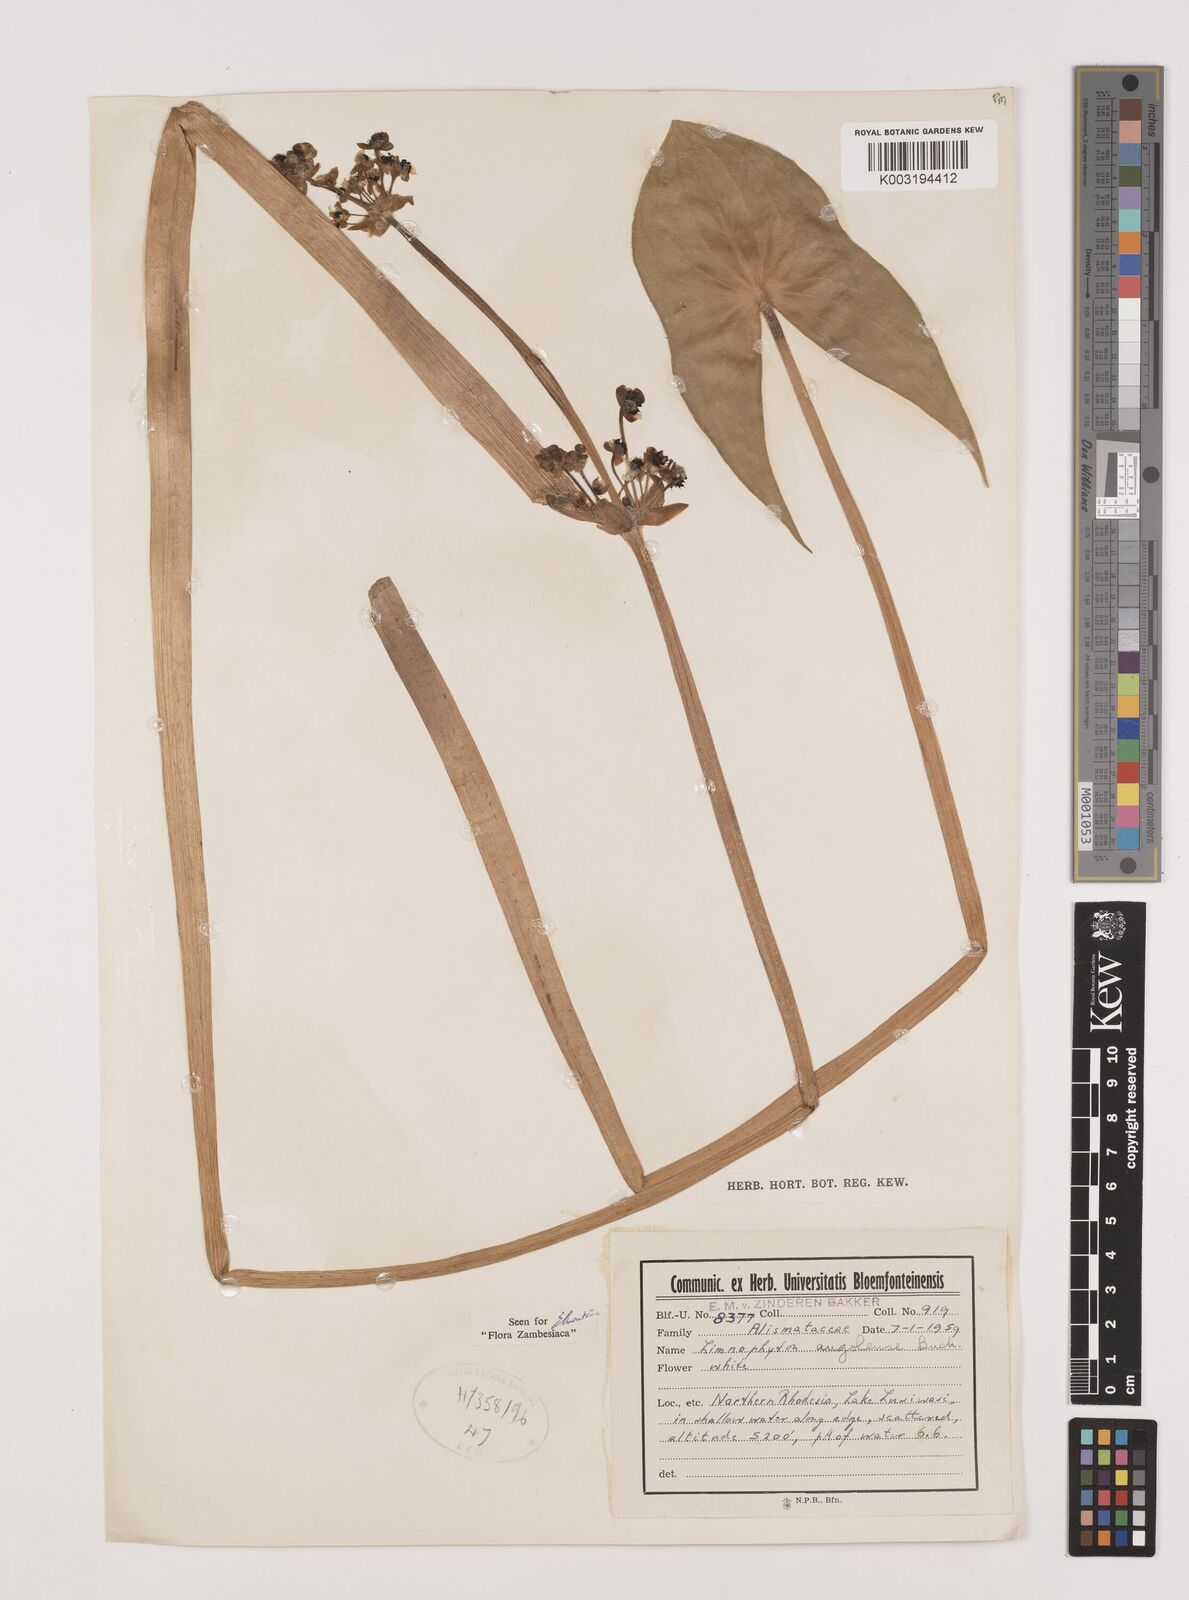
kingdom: Plantae
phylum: Tracheophyta
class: Liliopsida
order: Alismatales
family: Alismataceae
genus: Limnophyton
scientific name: Limnophyton angolense
